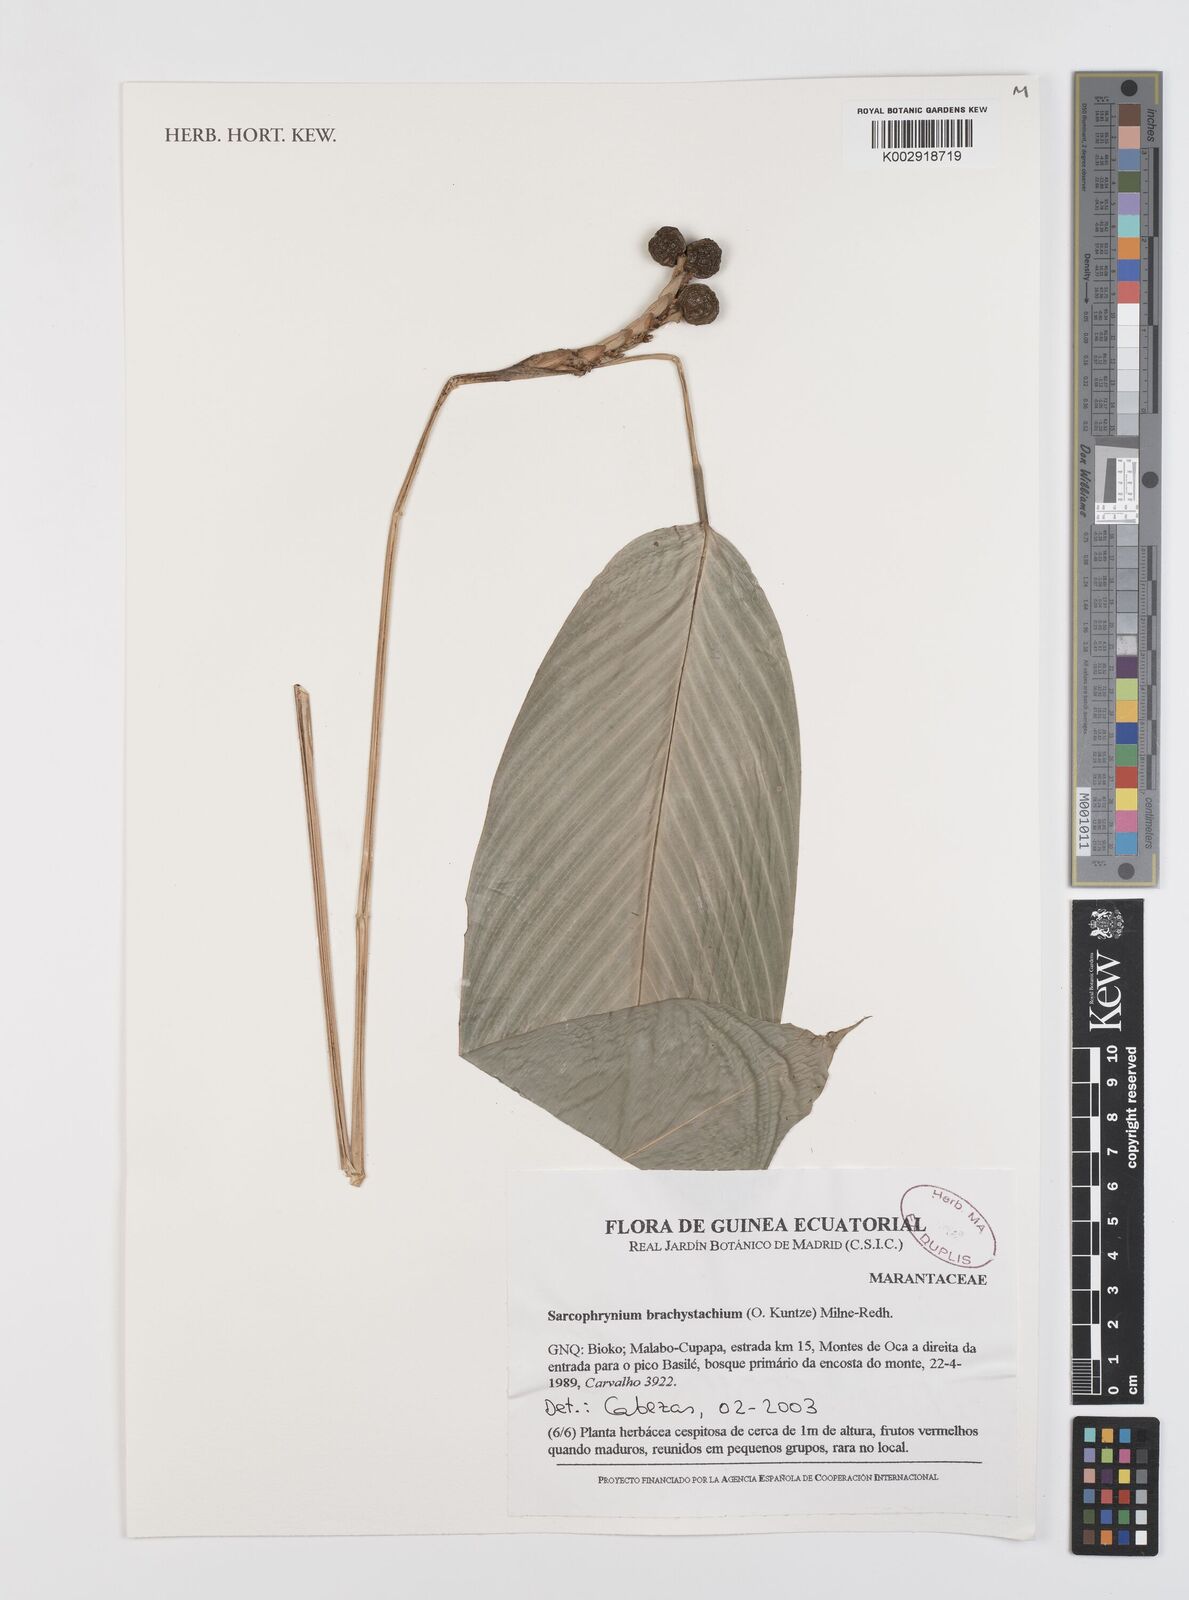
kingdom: Plantae
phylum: Tracheophyta
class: Liliopsida
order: Zingiberales
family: Marantaceae
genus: Sarcophrynium
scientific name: Sarcophrynium brachystachyum
